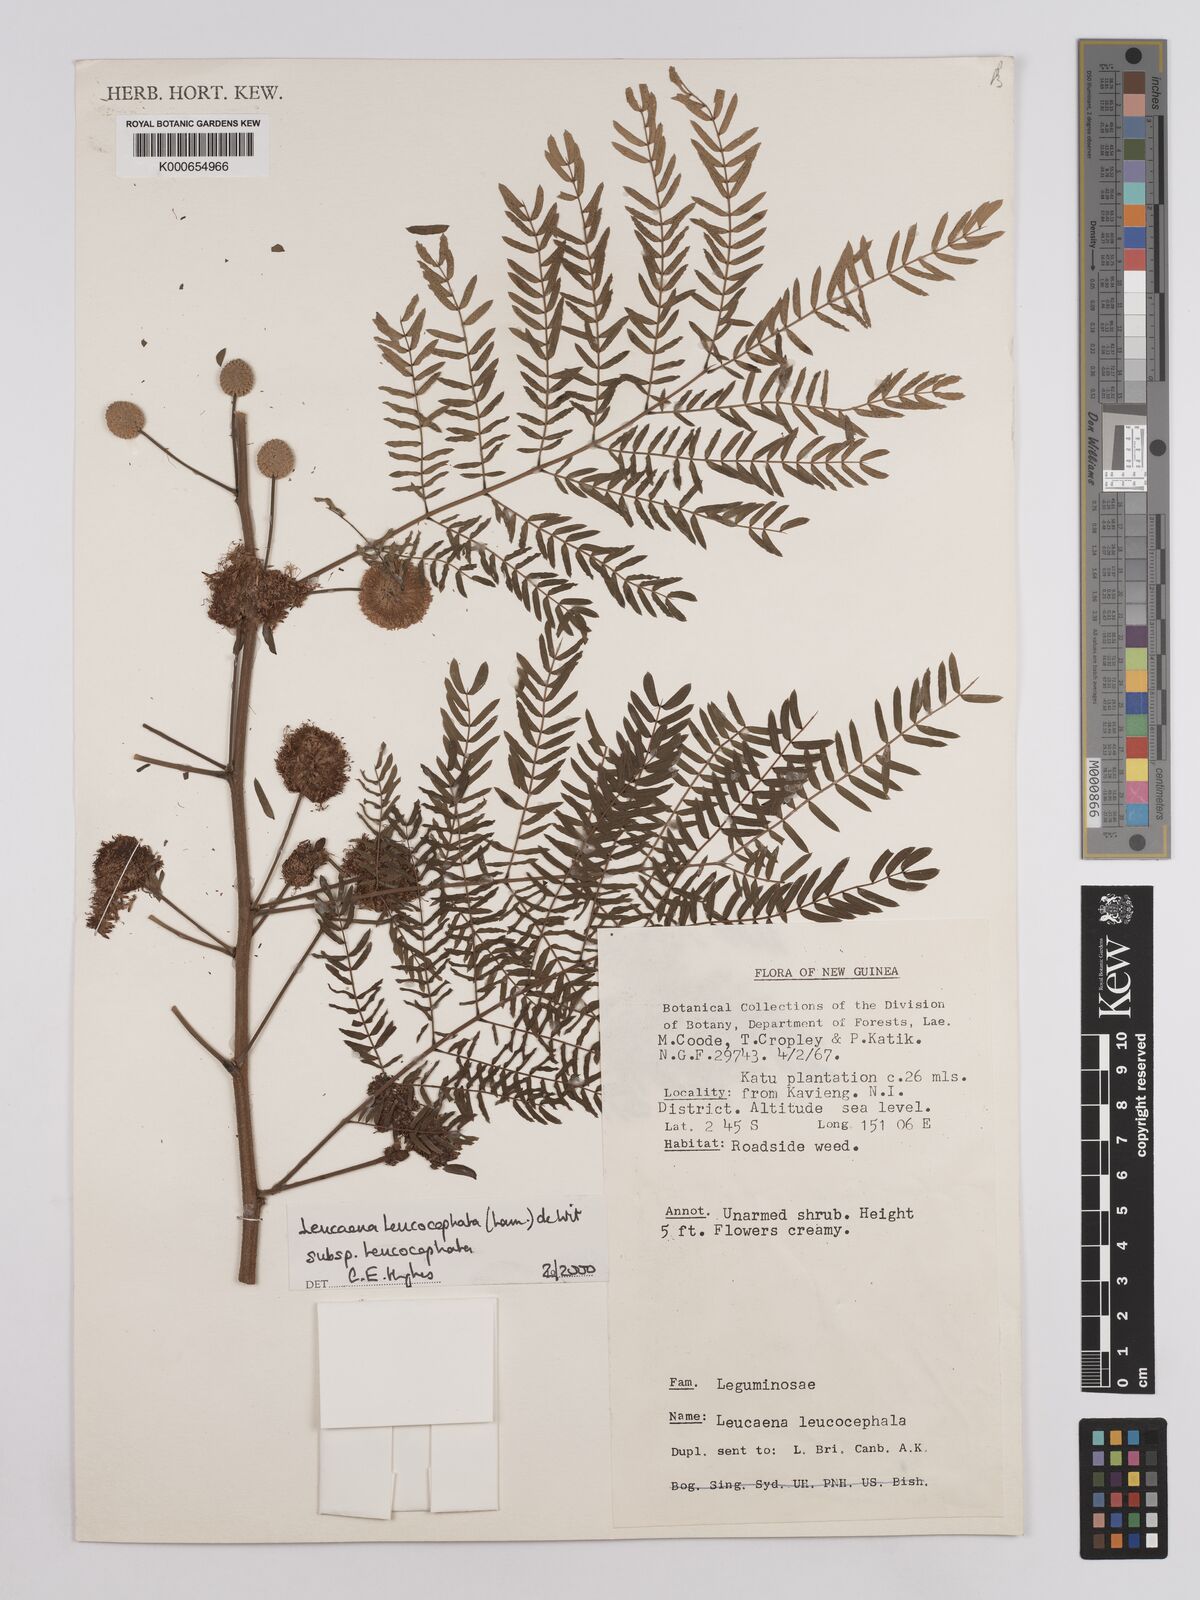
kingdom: Plantae
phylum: Tracheophyta
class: Magnoliopsida
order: Fabales
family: Fabaceae
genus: Leucaena
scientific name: Leucaena leucocephala
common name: White leadtree
